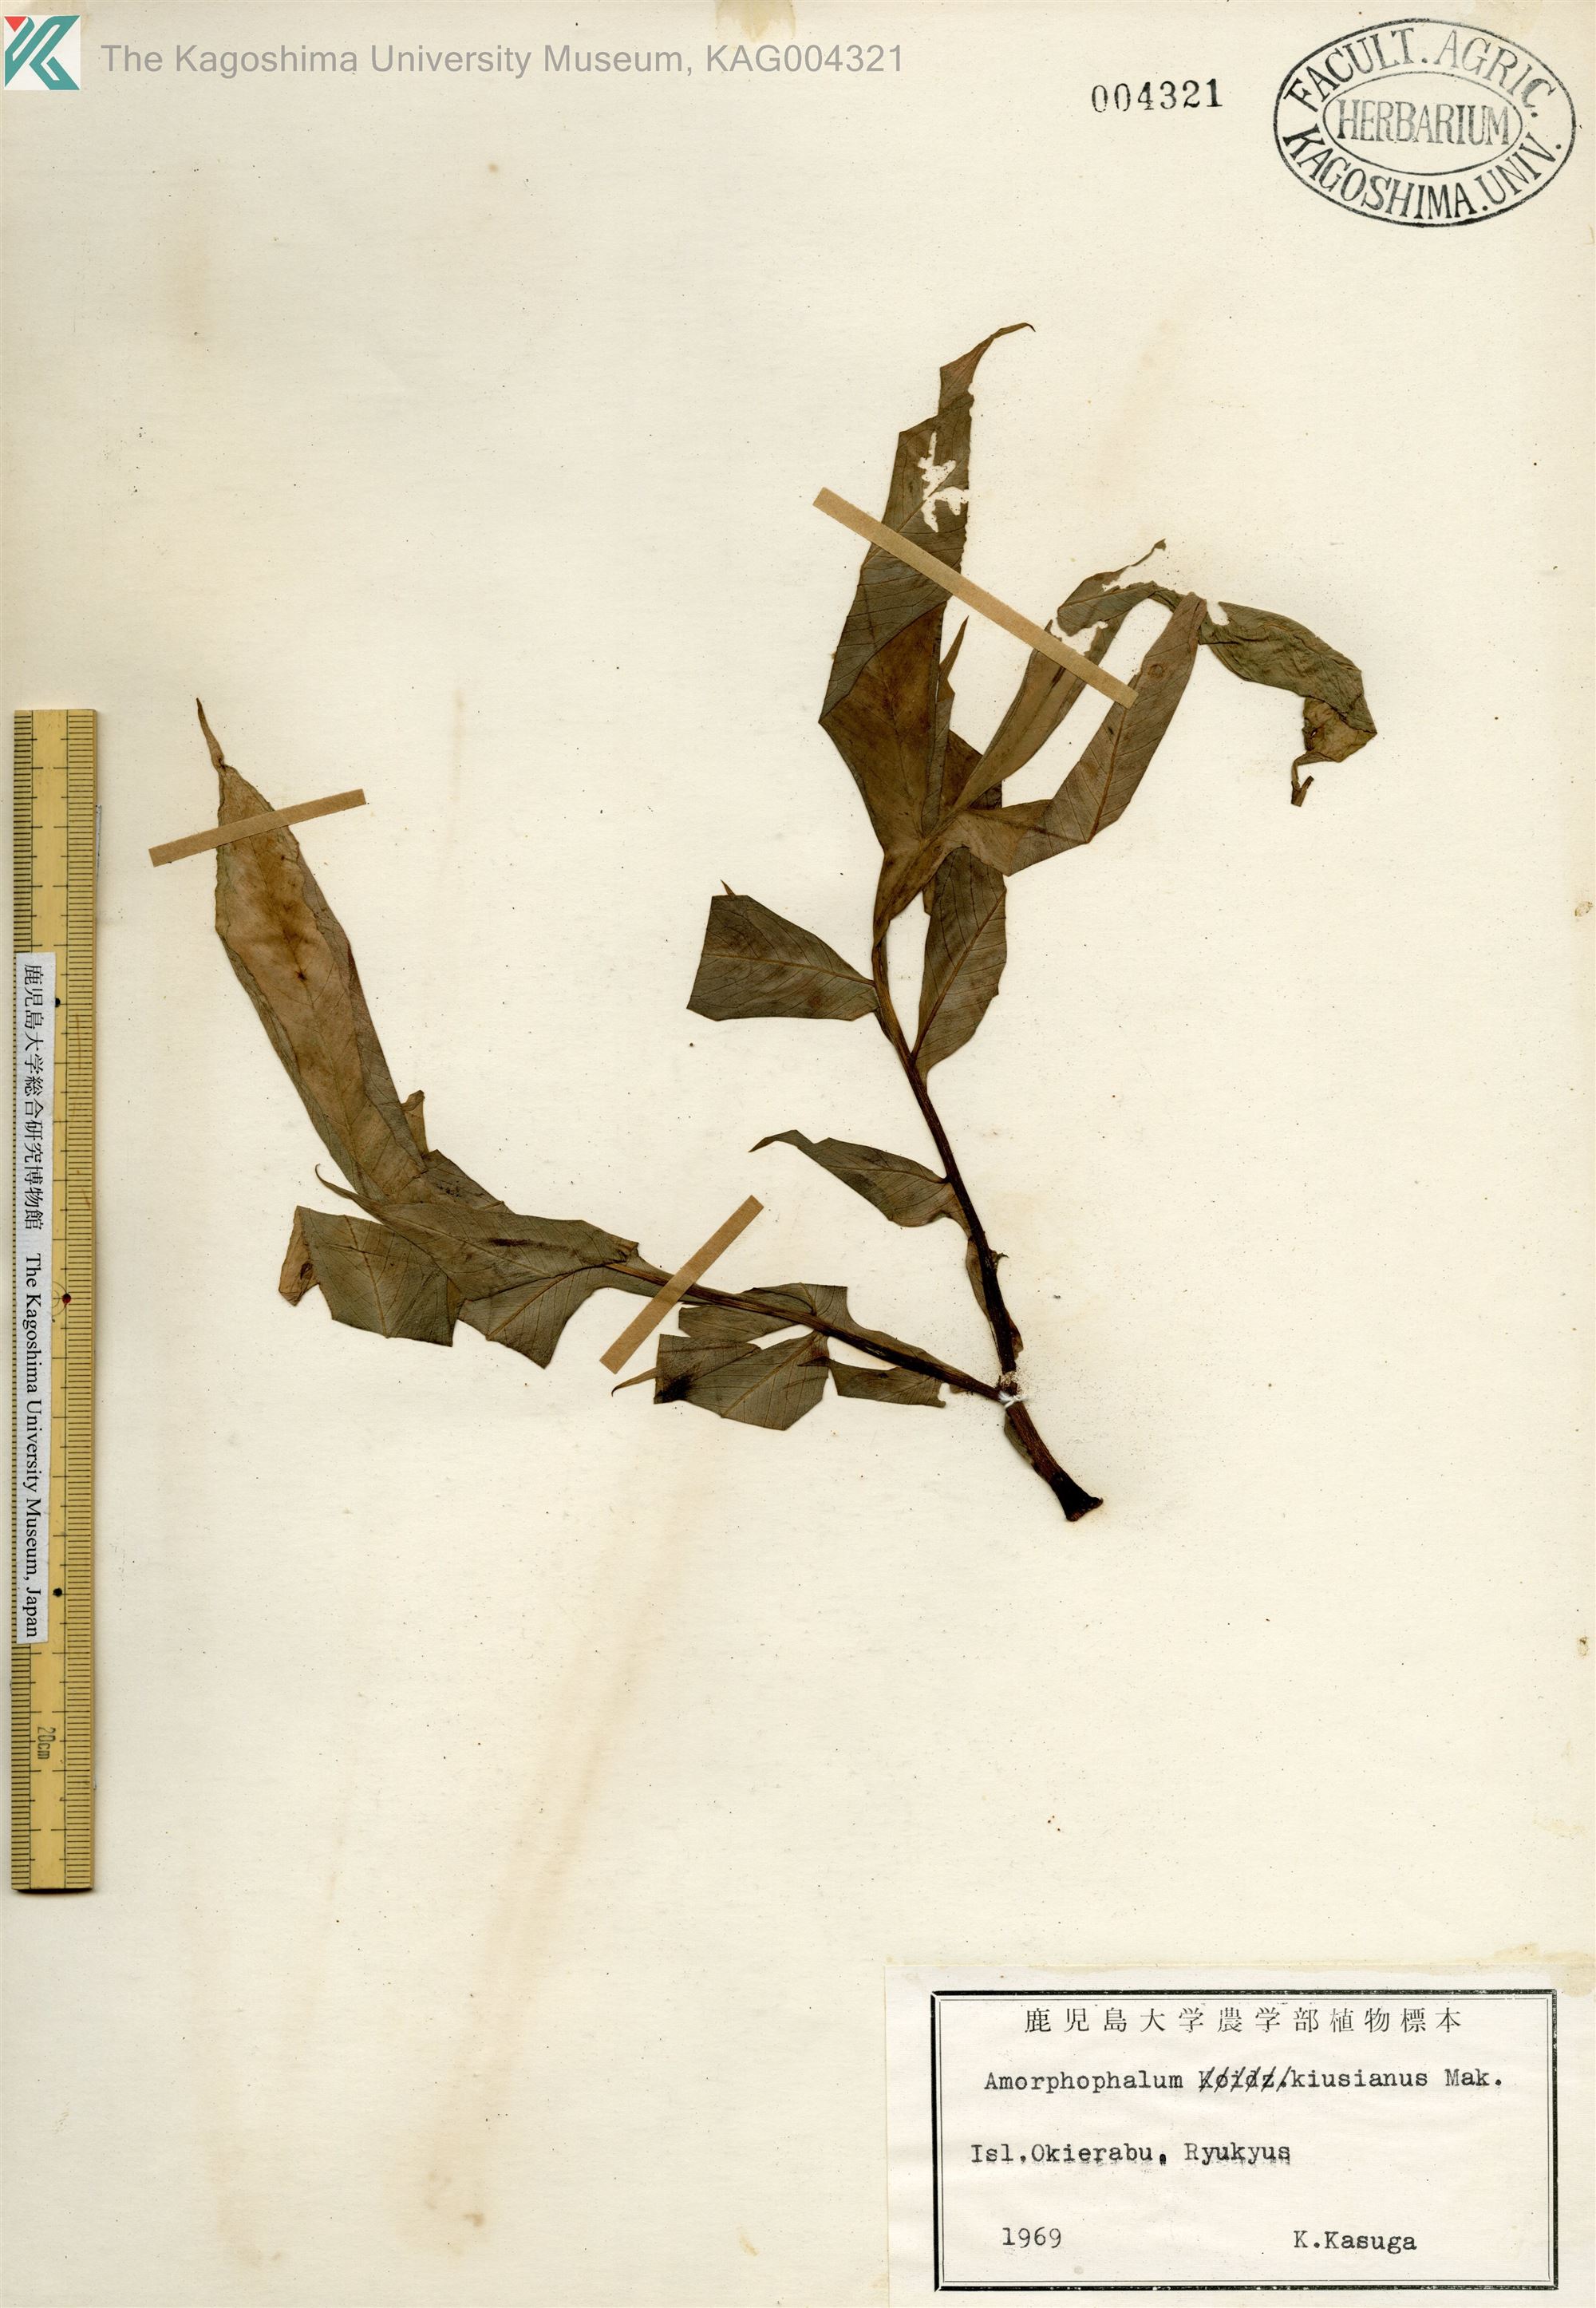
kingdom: Plantae
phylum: Tracheophyta
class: Liliopsida
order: Alismatales
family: Araceae
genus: Amorphophallus
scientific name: Amorphophallus kiusianus
